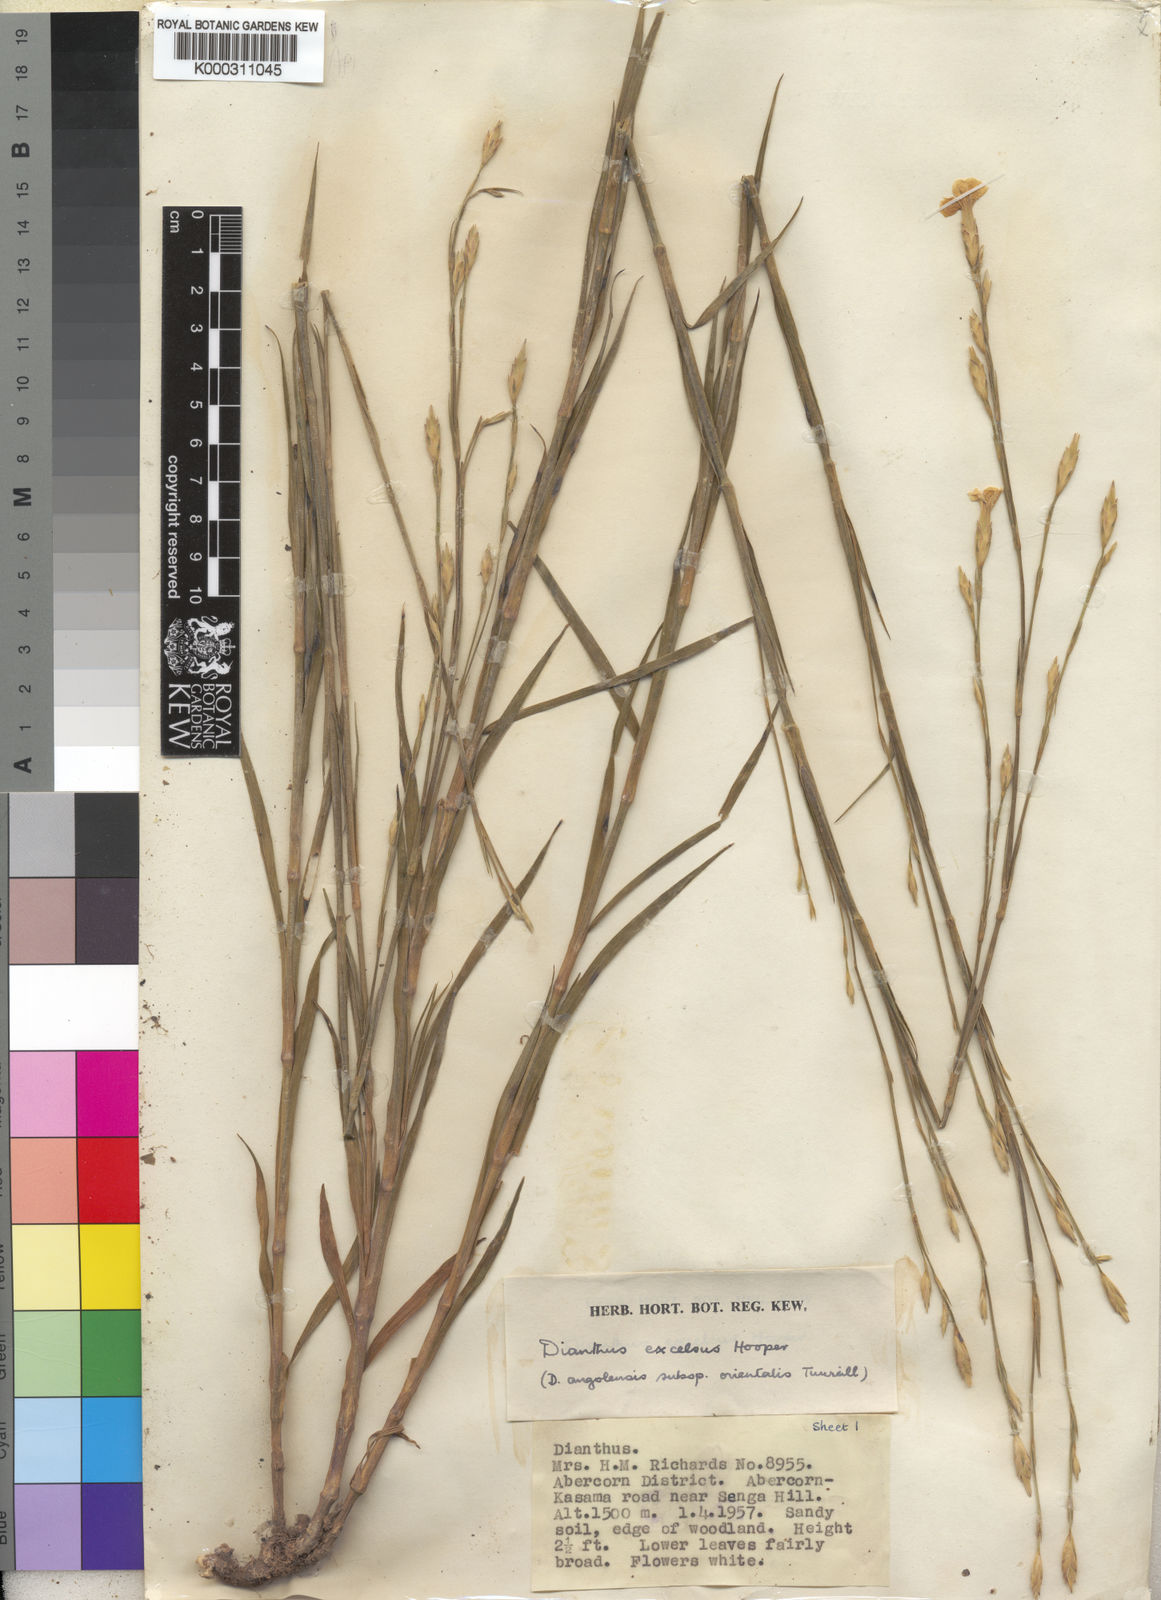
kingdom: Plantae
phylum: Tracheophyta
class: Magnoliopsida
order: Caryophyllales
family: Caryophyllaceae
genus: Dianthus
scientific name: Dianthus excelsus
